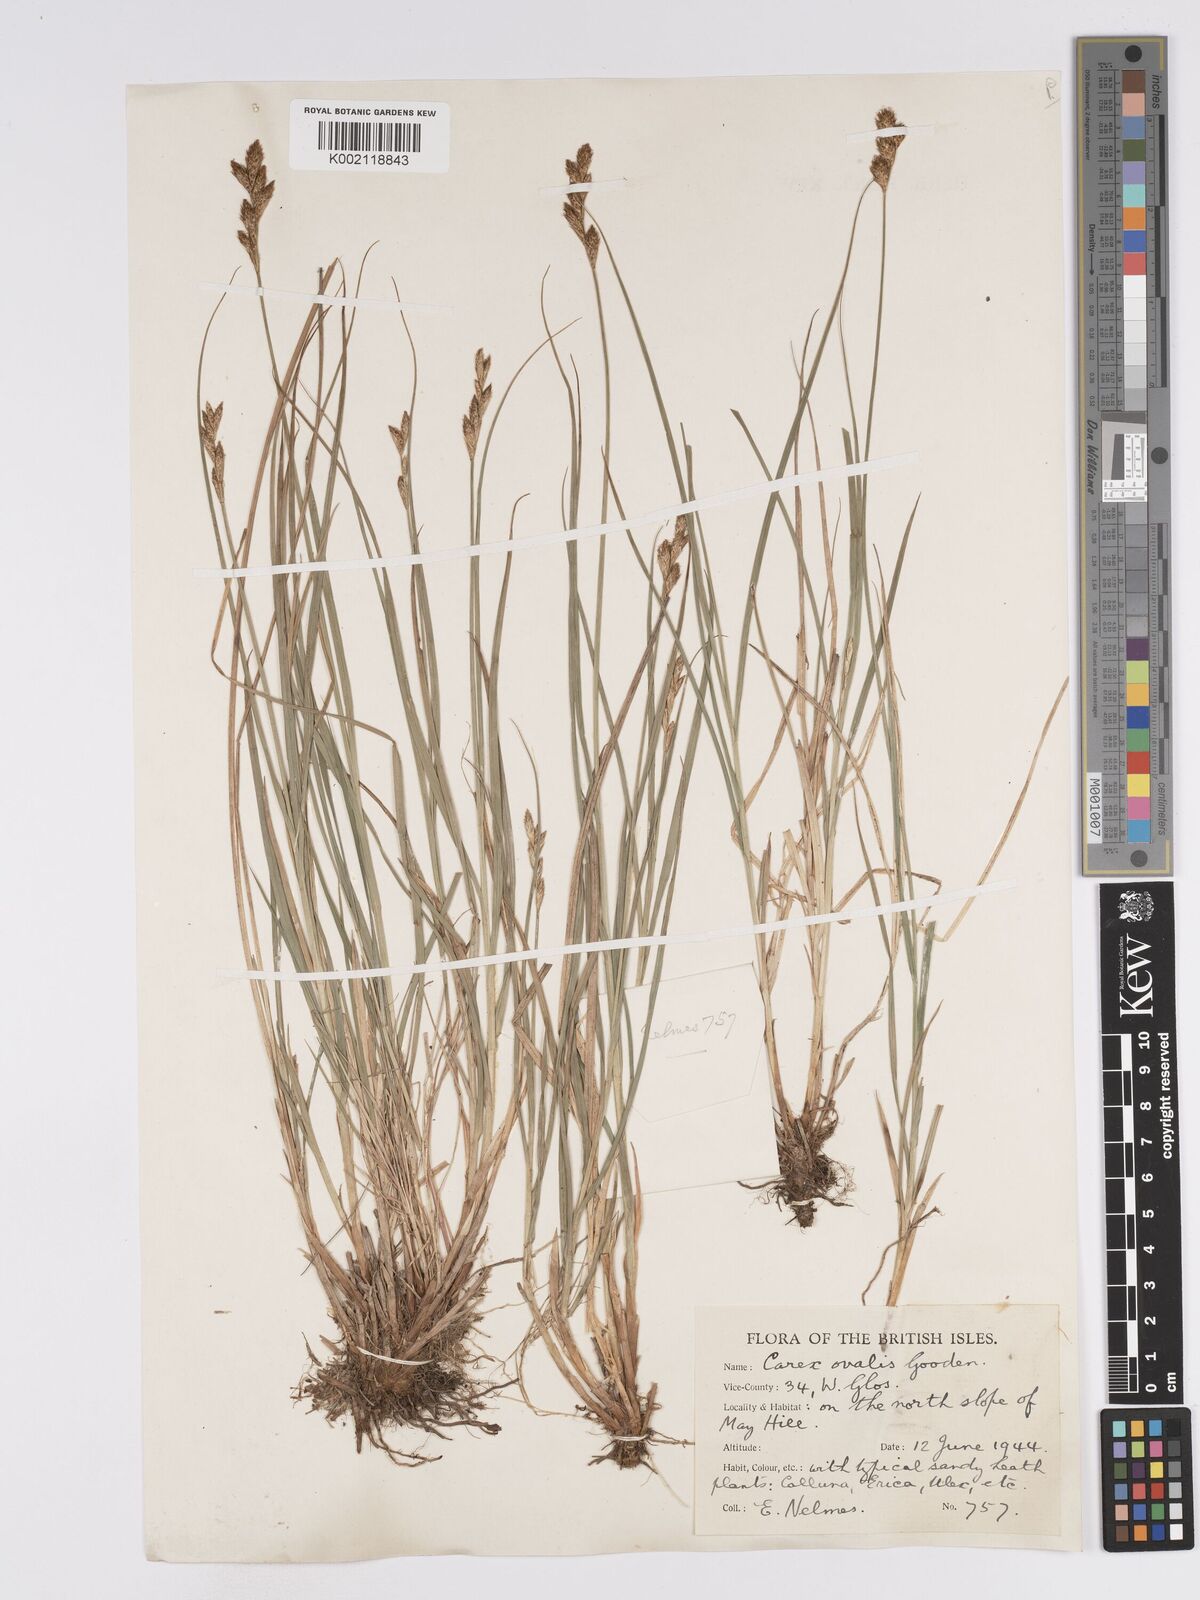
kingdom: Plantae
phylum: Tracheophyta
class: Liliopsida
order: Poales
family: Cyperaceae
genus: Carex
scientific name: Carex leporina
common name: Oval sedge
